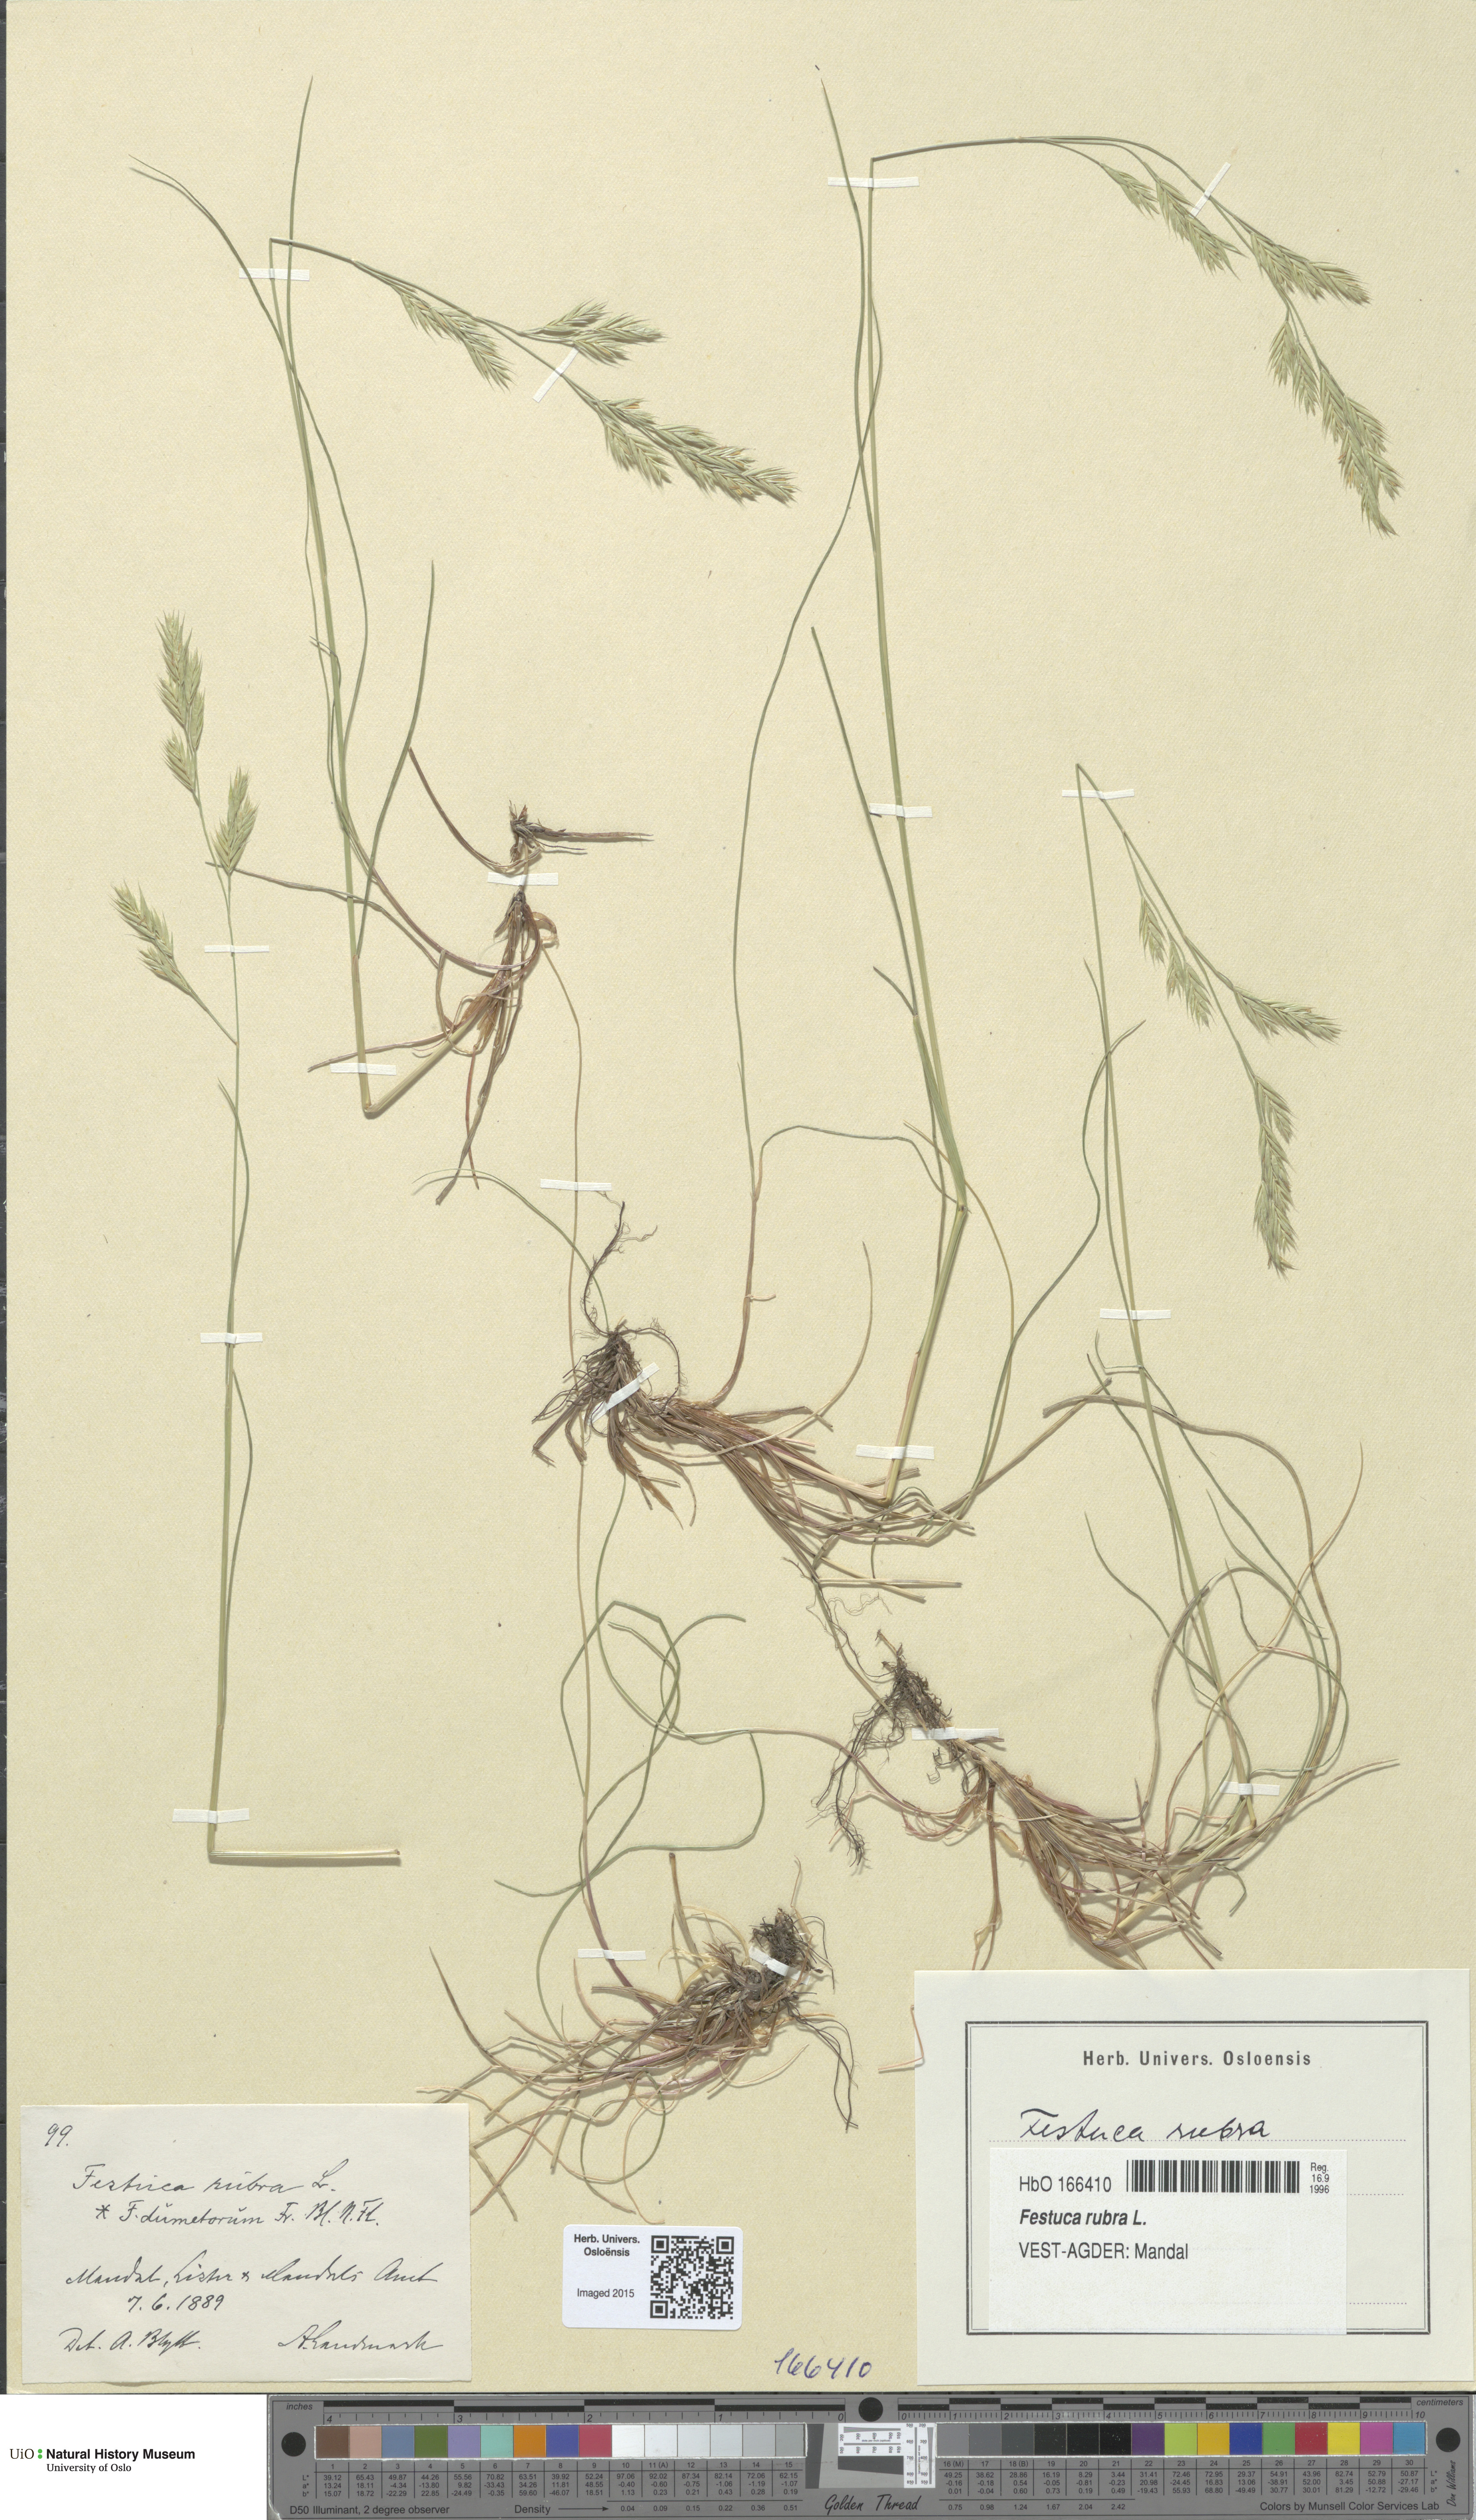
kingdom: Plantae
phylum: Tracheophyta
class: Liliopsida
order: Poales
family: Poaceae
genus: Festuca
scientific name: Festuca rubra
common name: Red fescue
